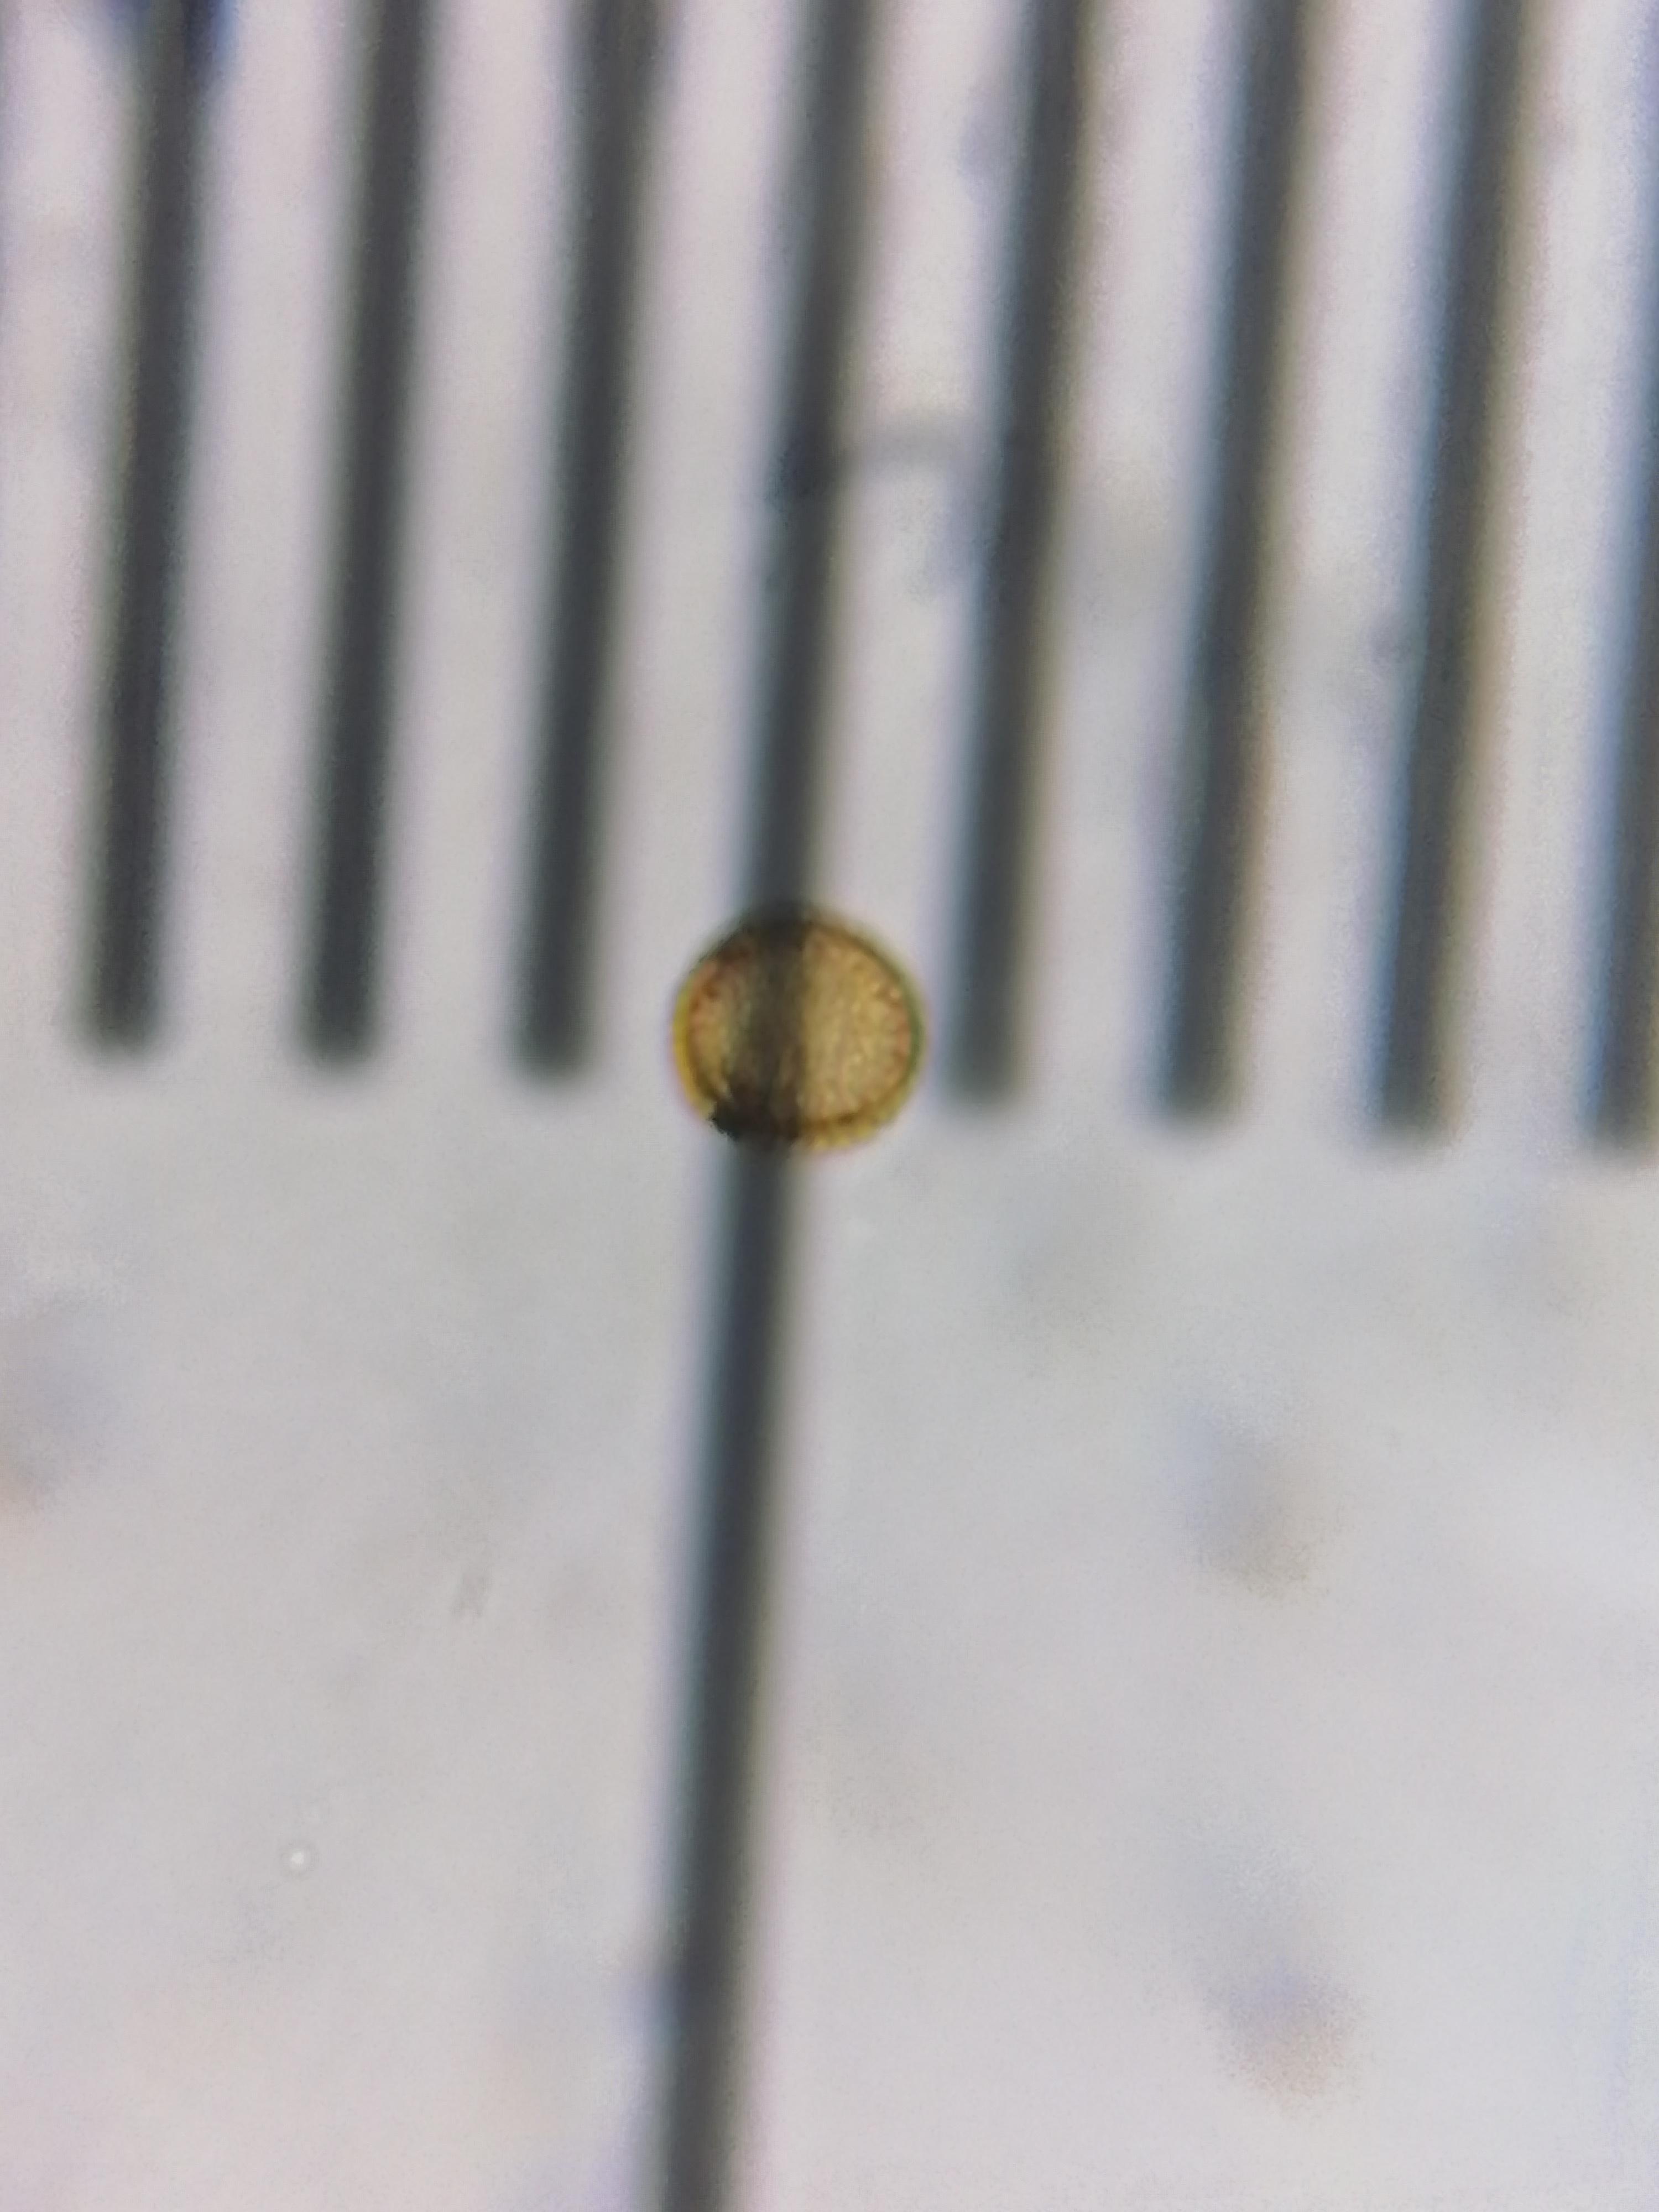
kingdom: Protozoa
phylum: Mycetozoa
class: Myxomycetes
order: Trichiales
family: Trichiaceae
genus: Metatrichia
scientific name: Metatrichia vesparia
